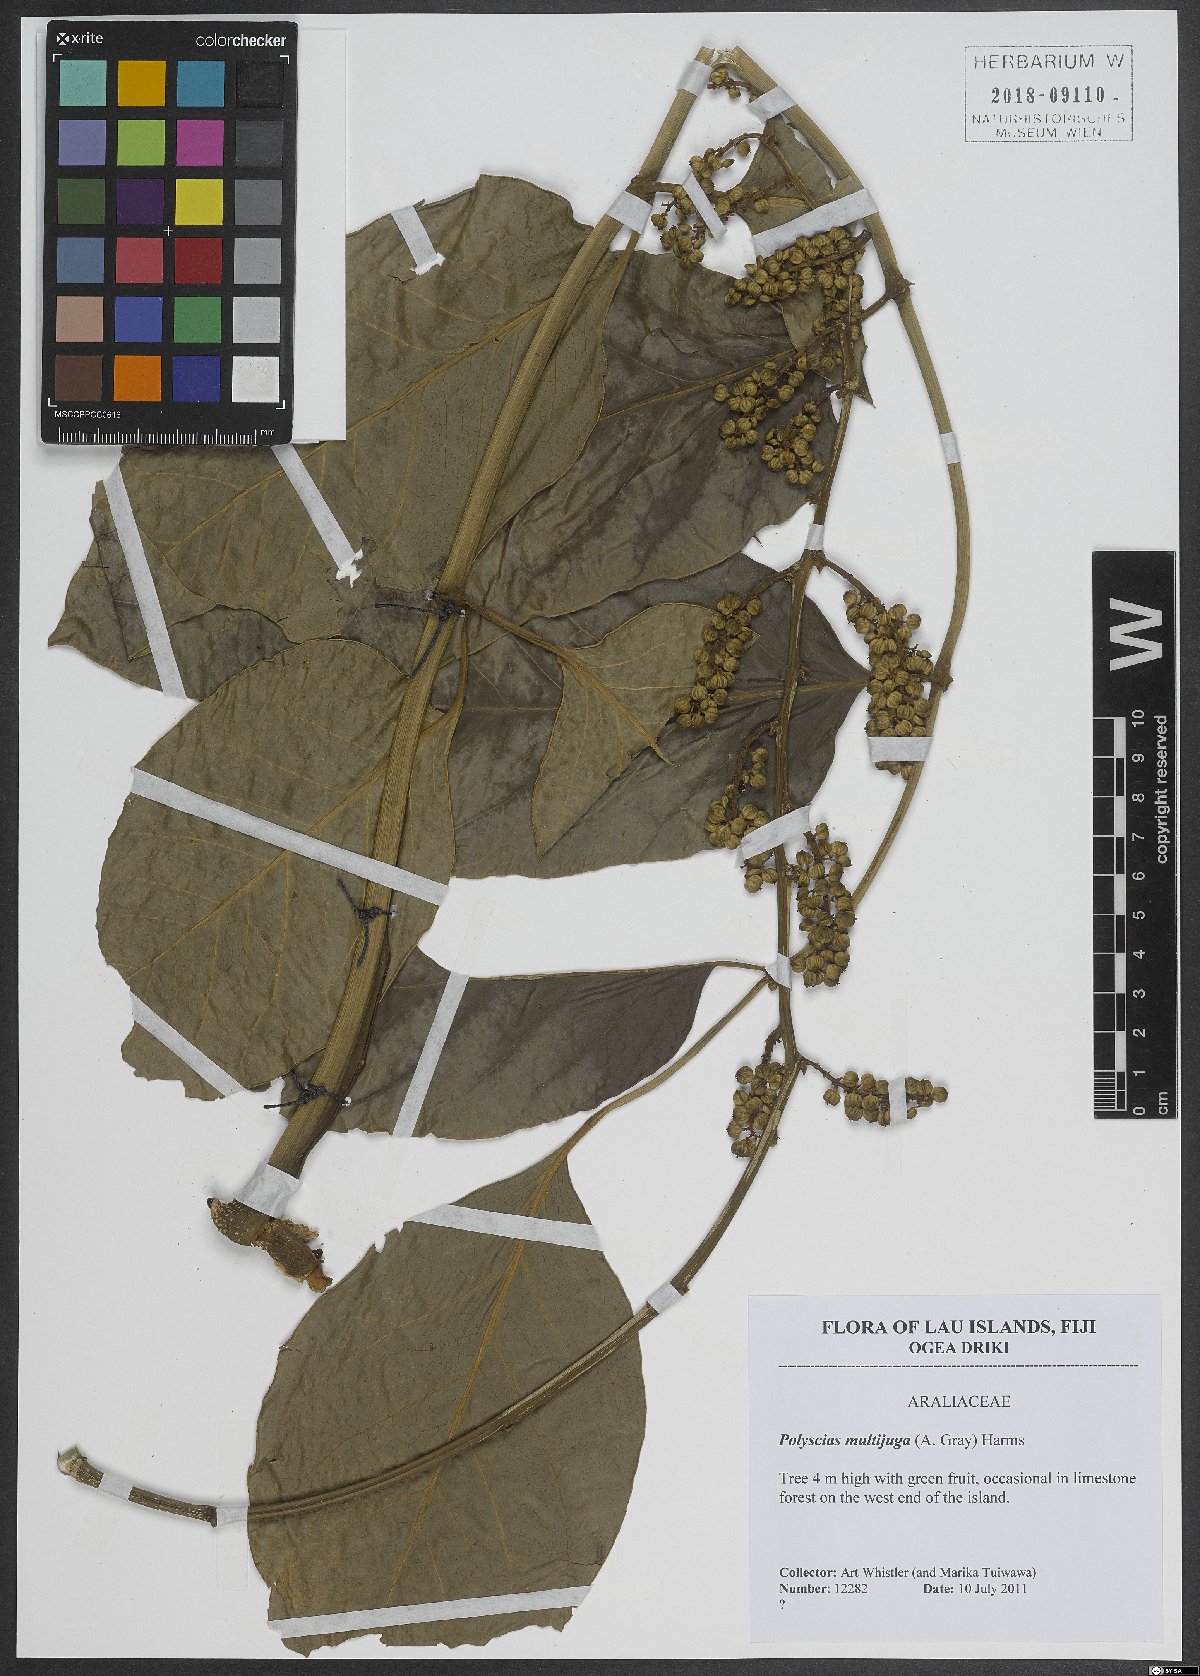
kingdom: Plantae
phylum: Tracheophyta
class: Magnoliopsida
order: Apiales
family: Araliaceae
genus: Polyscias
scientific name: Polyscias multijuga
